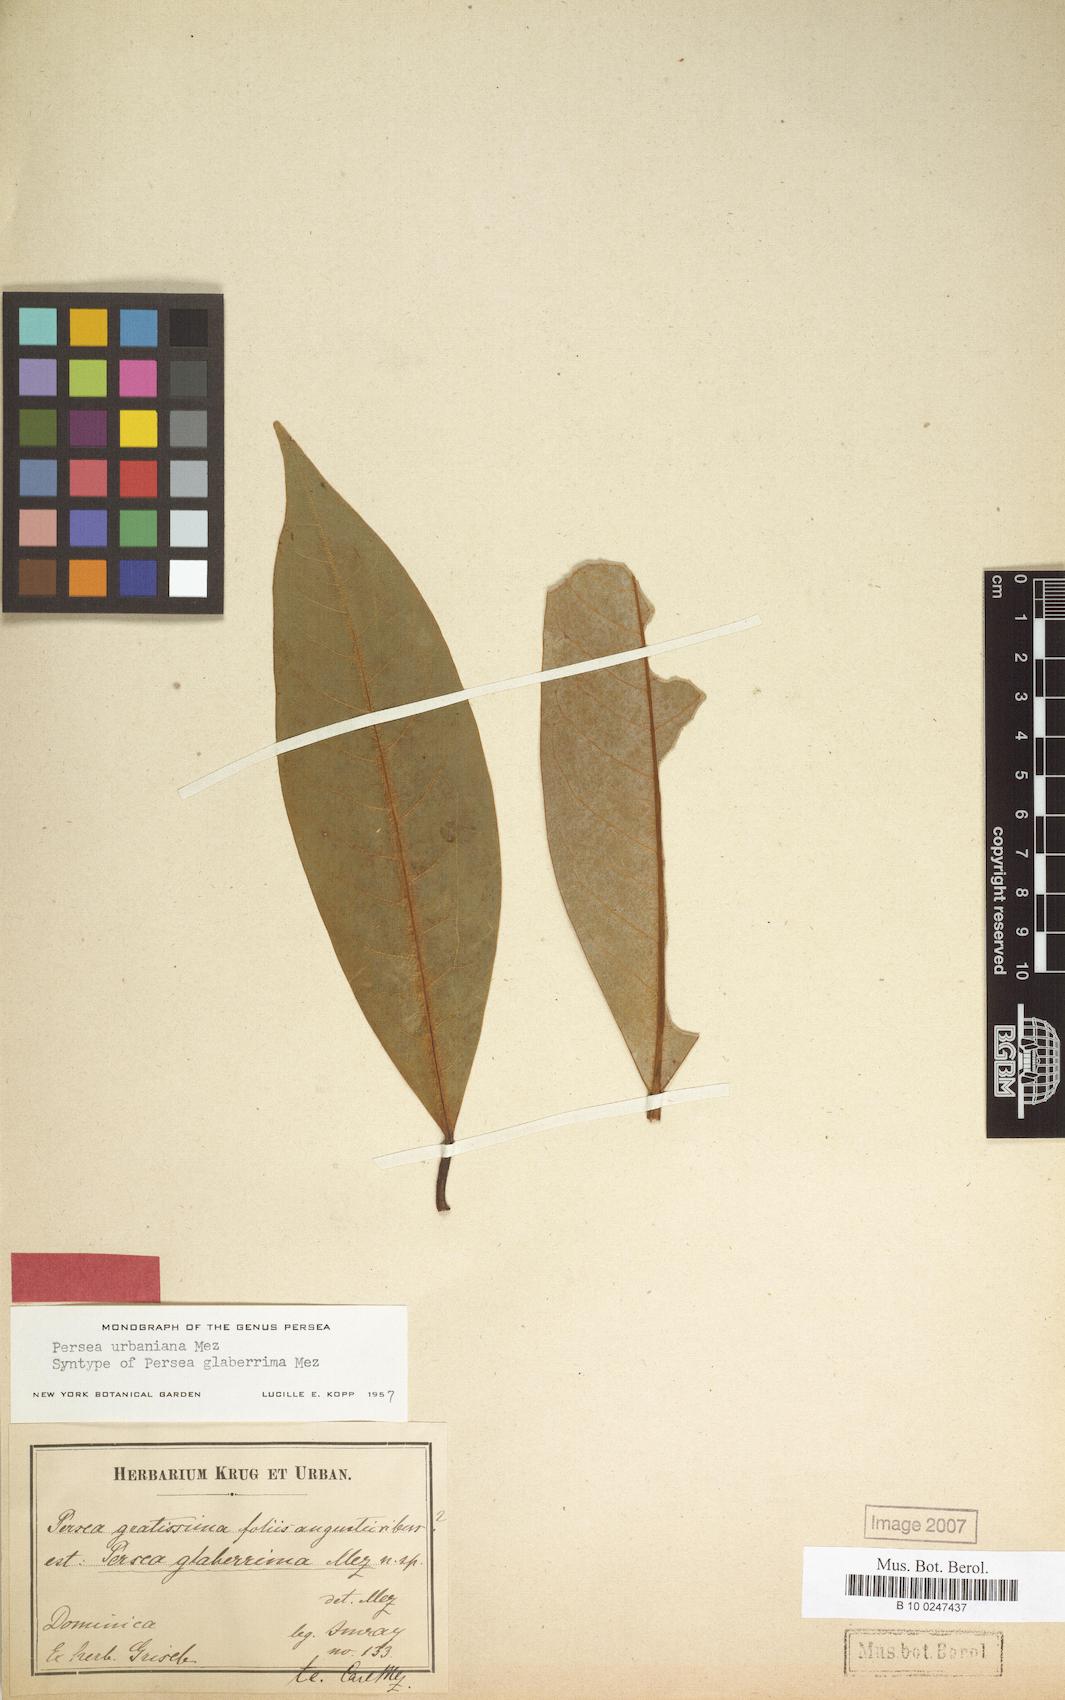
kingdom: Plantae
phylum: Tracheophyta
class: Magnoliopsida
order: Laurales
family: Lauraceae
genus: Persea
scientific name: Persea urbaniana
